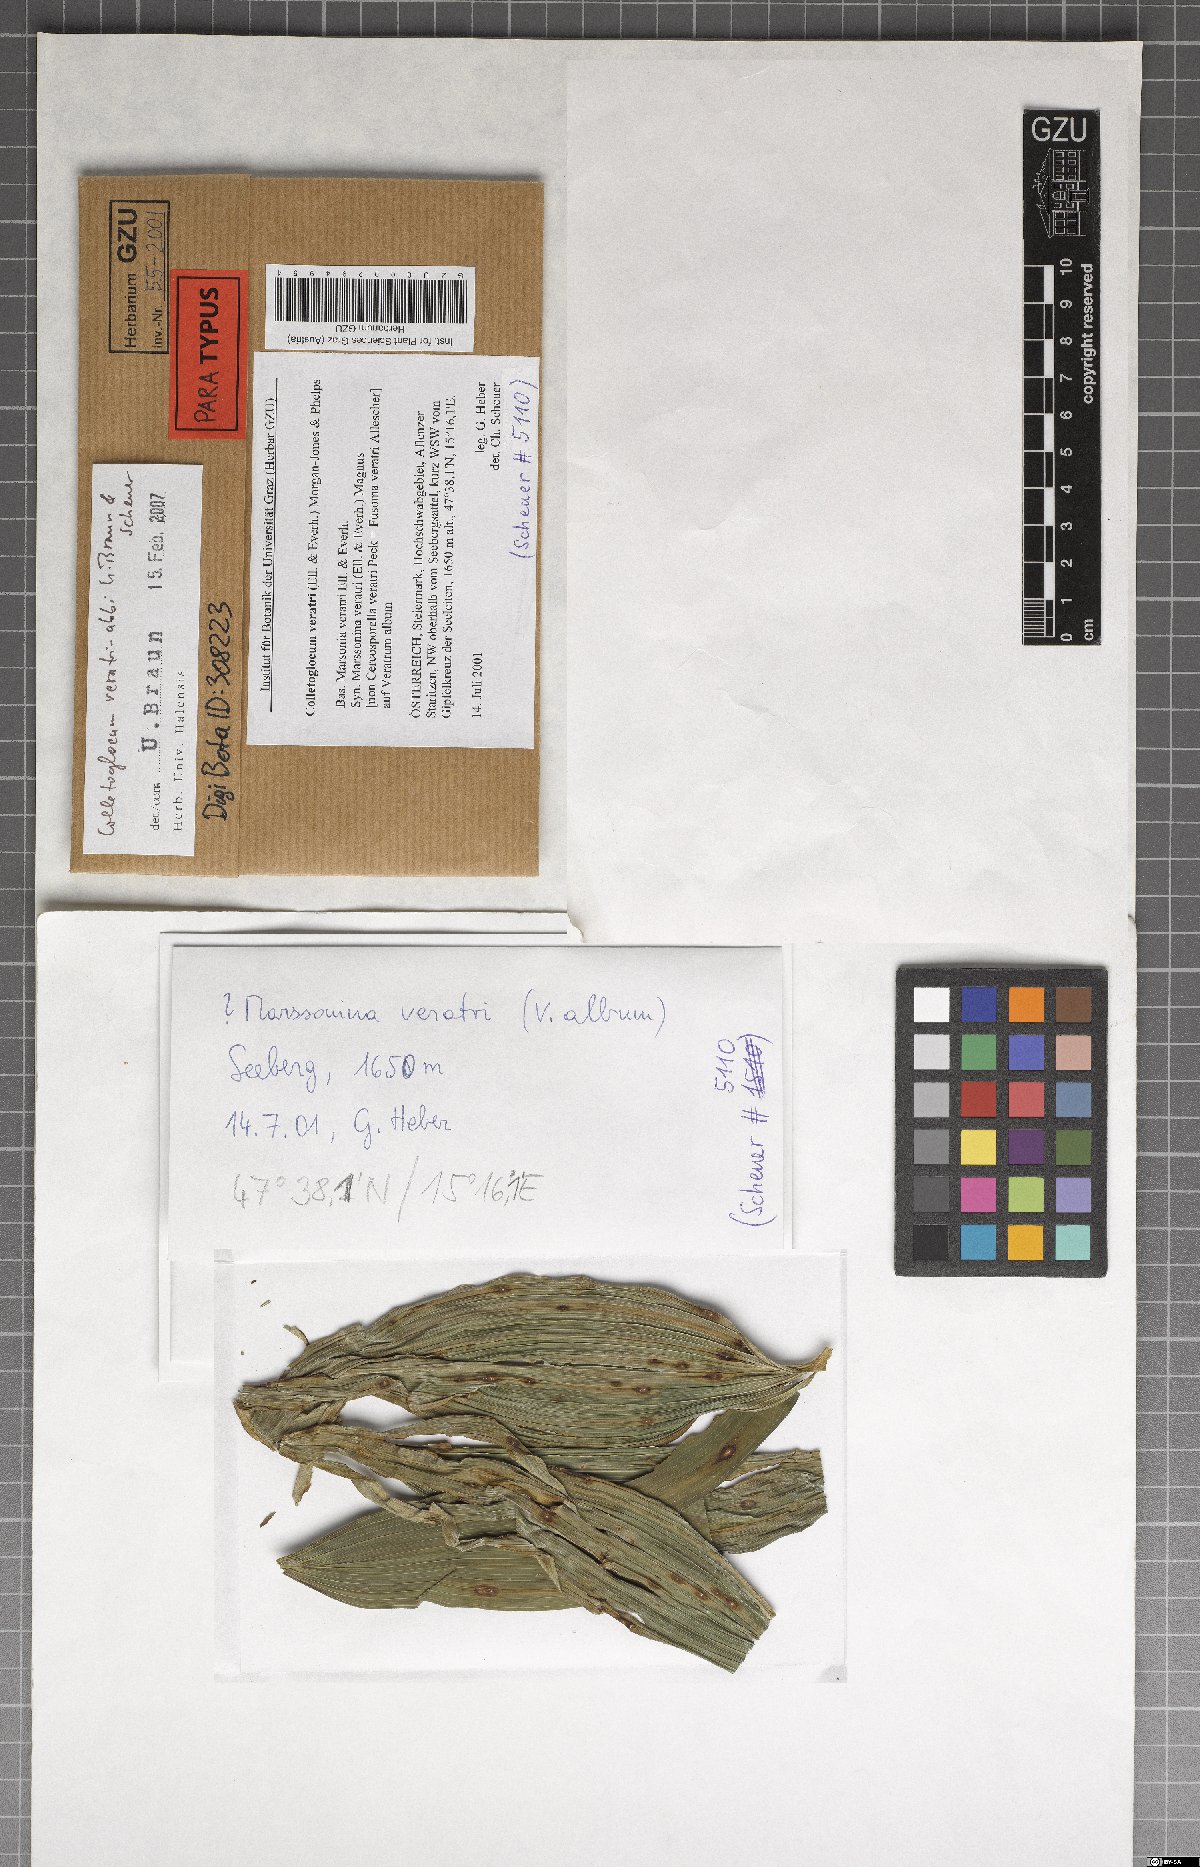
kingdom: Fungi
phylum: Ascomycota
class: Dothideomycetes
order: Mycosphaerellales
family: Mycosphaerellaceae
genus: Colletogloeum
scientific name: Colletogloeum veratri-albi
